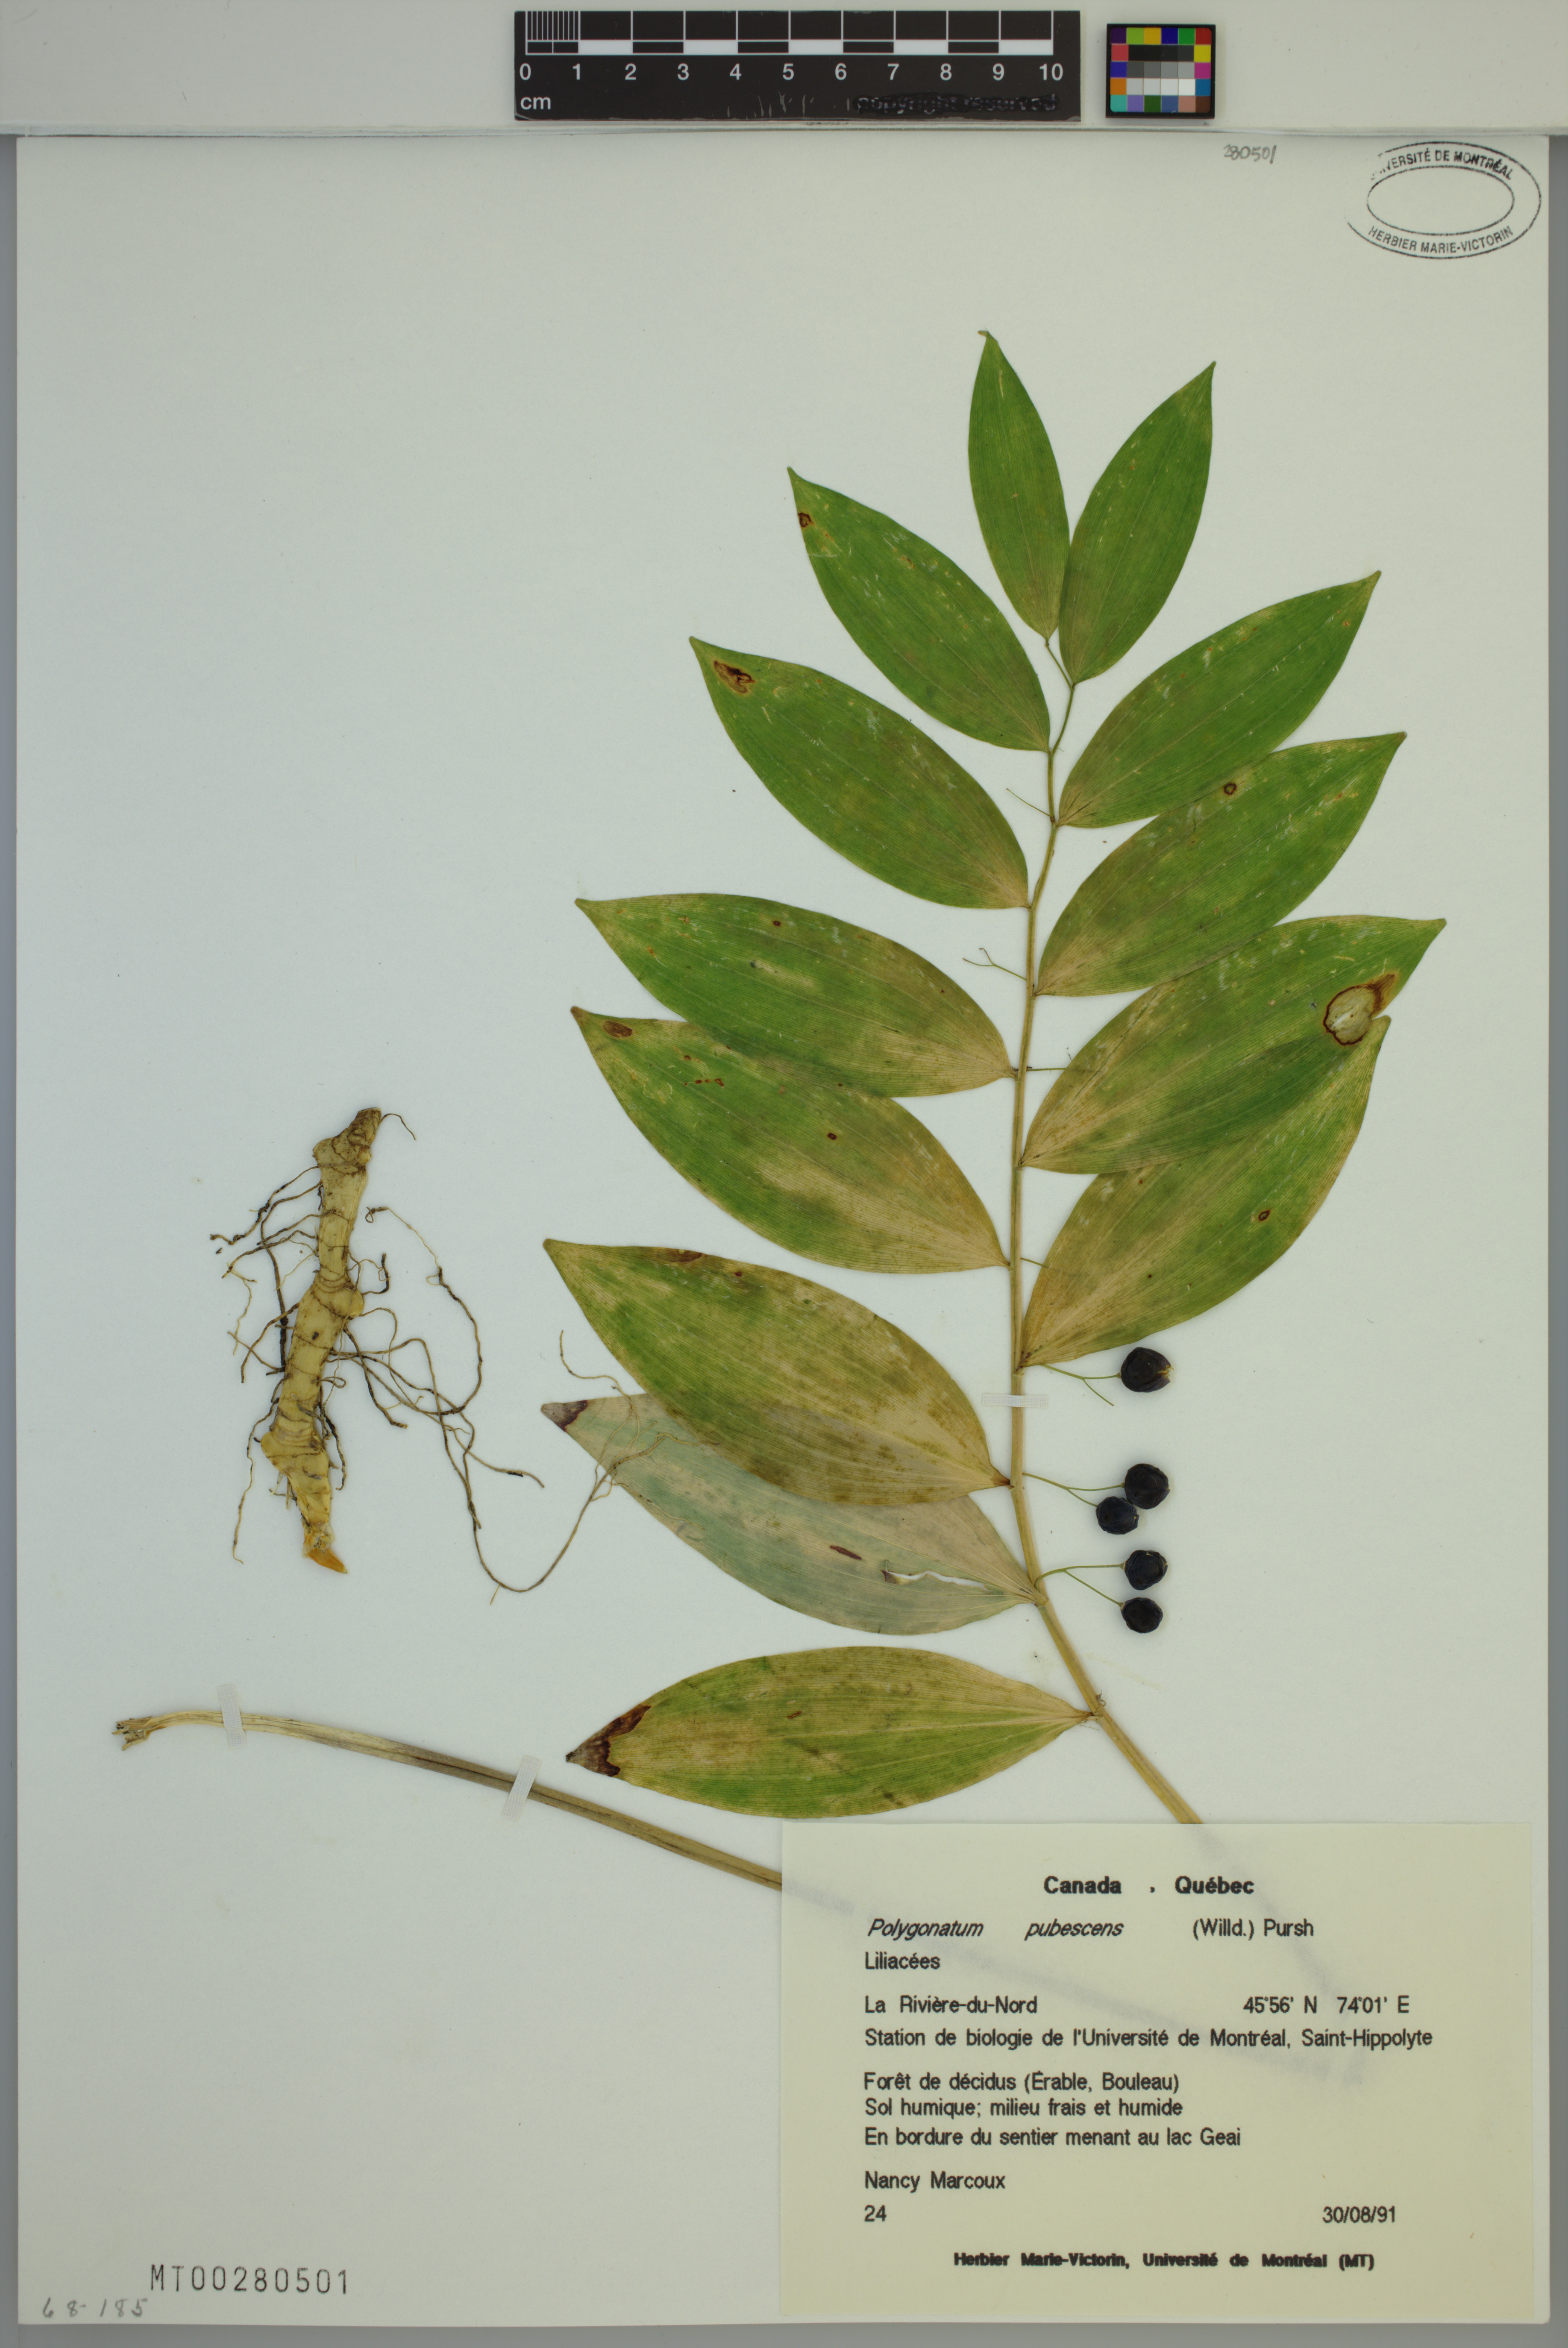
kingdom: Plantae
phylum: Tracheophyta
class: Liliopsida
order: Asparagales
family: Asparagaceae
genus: Polygonatum
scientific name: Polygonatum pubescens
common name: Downy solomon's seal
